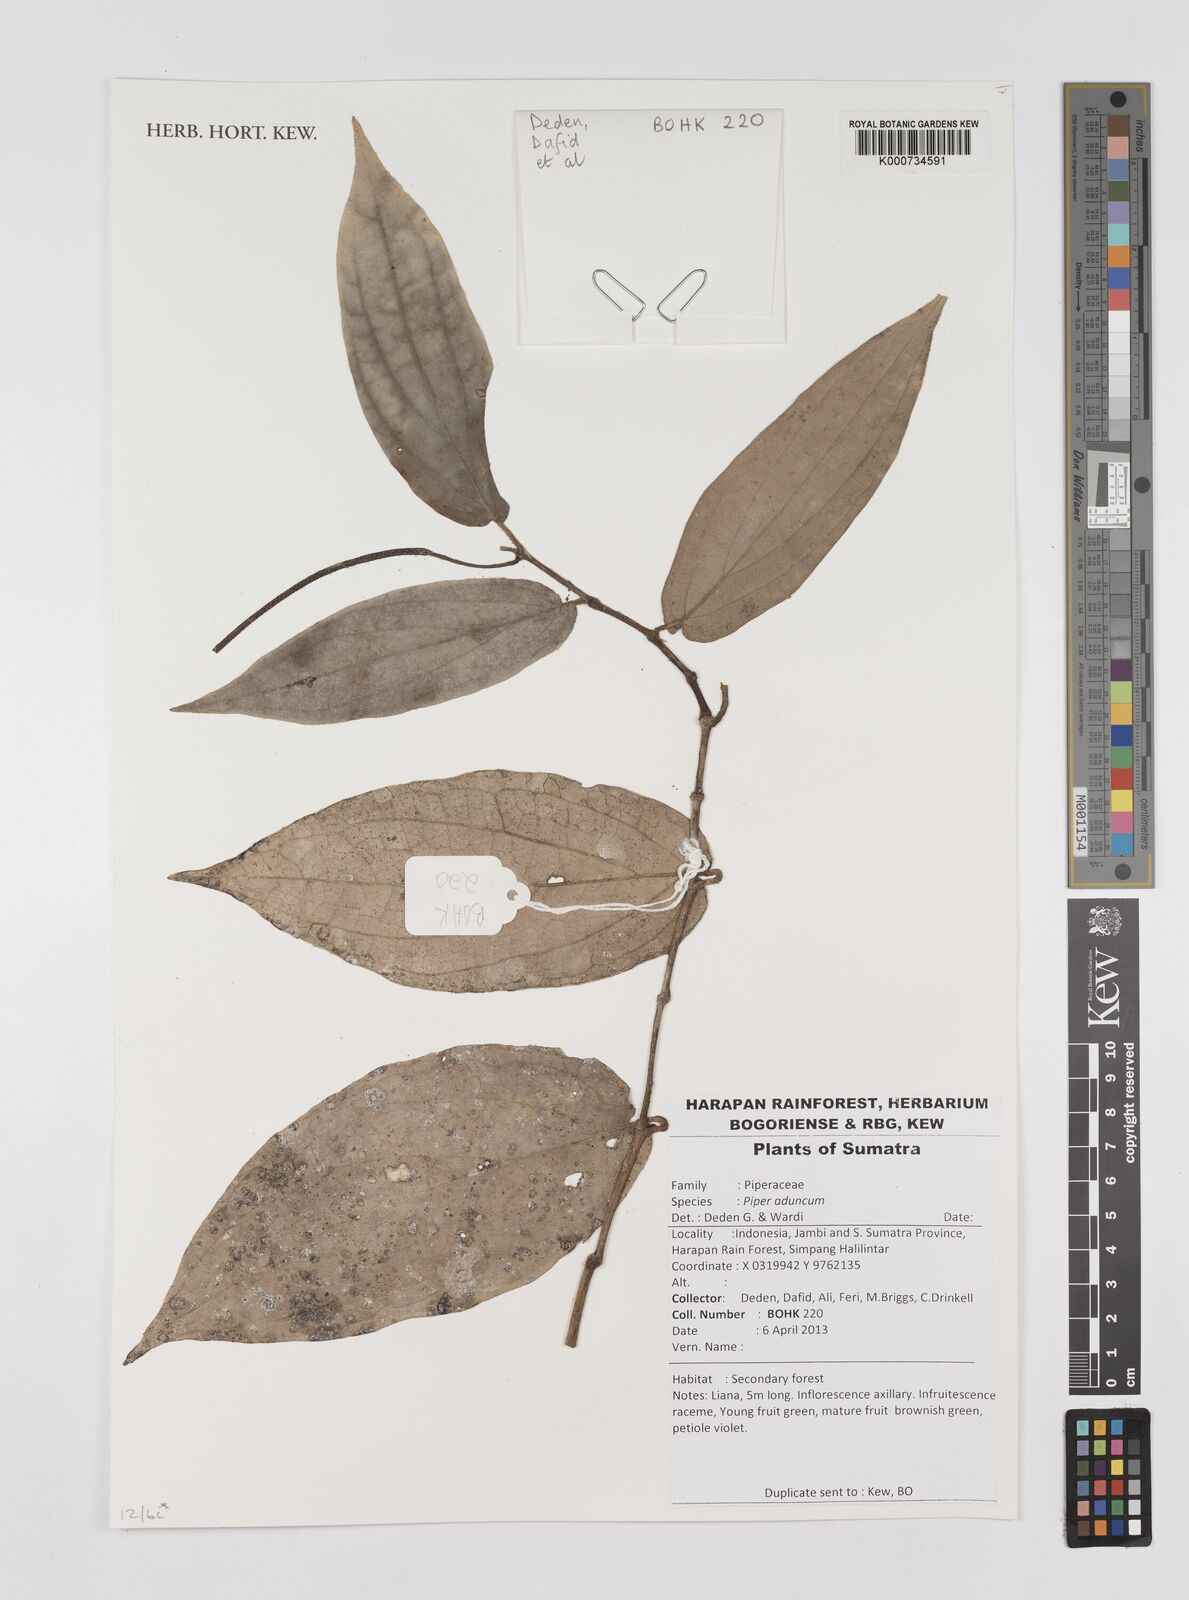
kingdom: Plantae
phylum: Tracheophyta
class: Magnoliopsida
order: Piperales
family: Piperaceae
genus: Piper
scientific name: Piper aduncum
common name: Spiked pepper
